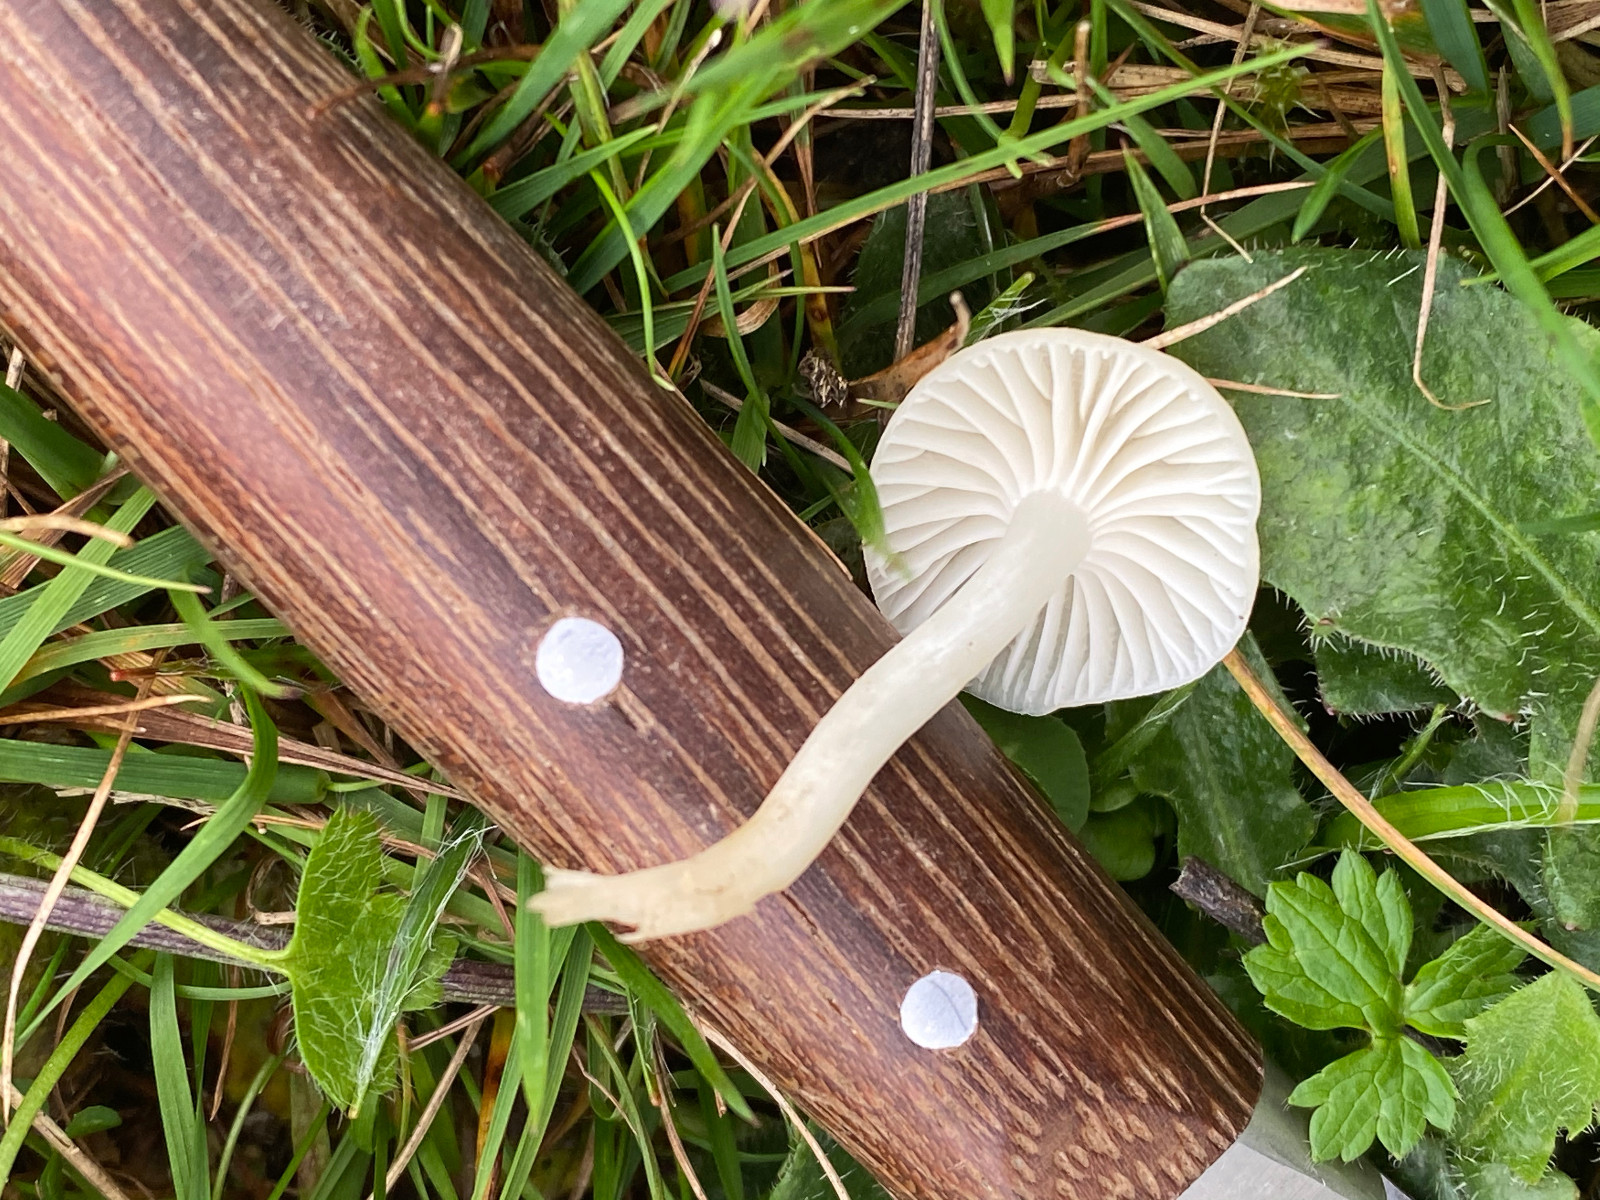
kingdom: Fungi
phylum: Basidiomycota
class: Agaricomycetes
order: Agaricales
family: Hygrophoraceae
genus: Cuphophyllus
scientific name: Cuphophyllus virgineus
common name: snehvid vokshat
